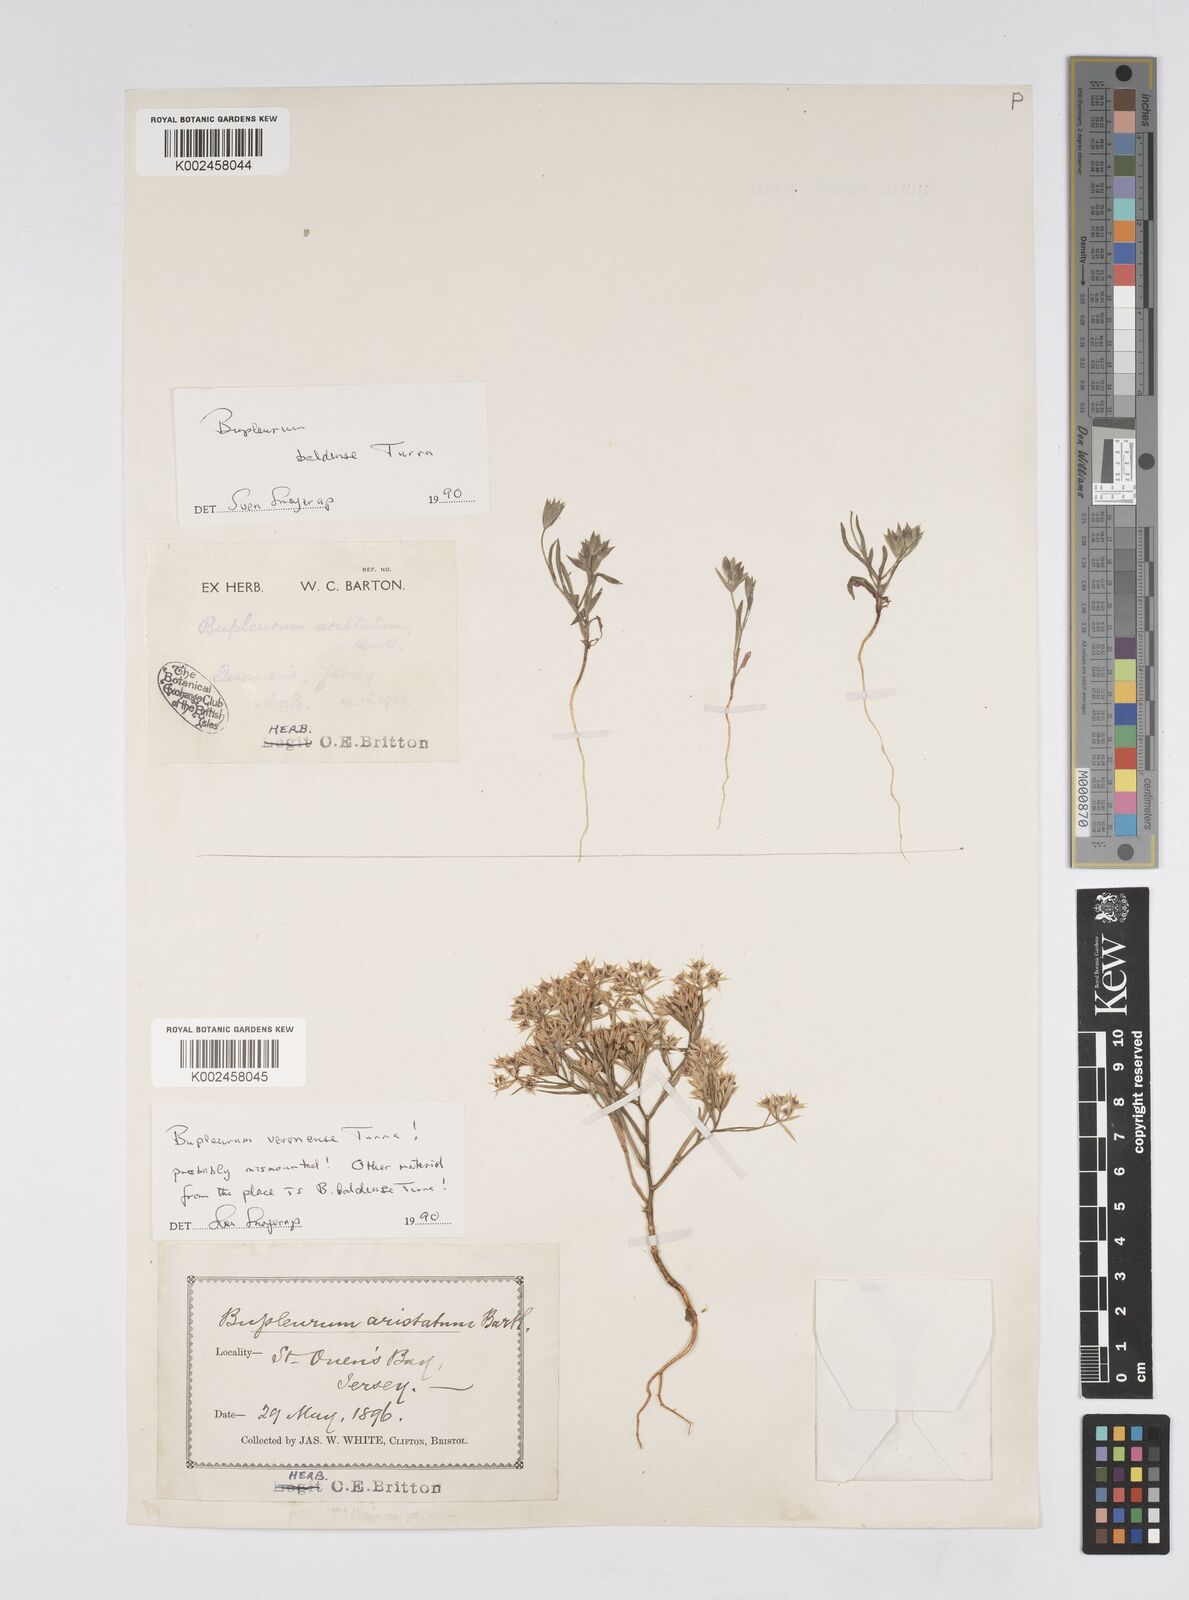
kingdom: Plantae
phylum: Tracheophyta
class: Magnoliopsida
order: Apiales
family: Apiaceae
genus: Bupleurum
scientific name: Bupleurum baldense
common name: Small hare's-ear
